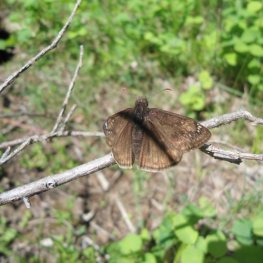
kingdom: Animalia
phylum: Arthropoda
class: Insecta
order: Lepidoptera
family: Hesperiidae
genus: Gesta
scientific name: Gesta
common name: Juvenal's Duskywing
